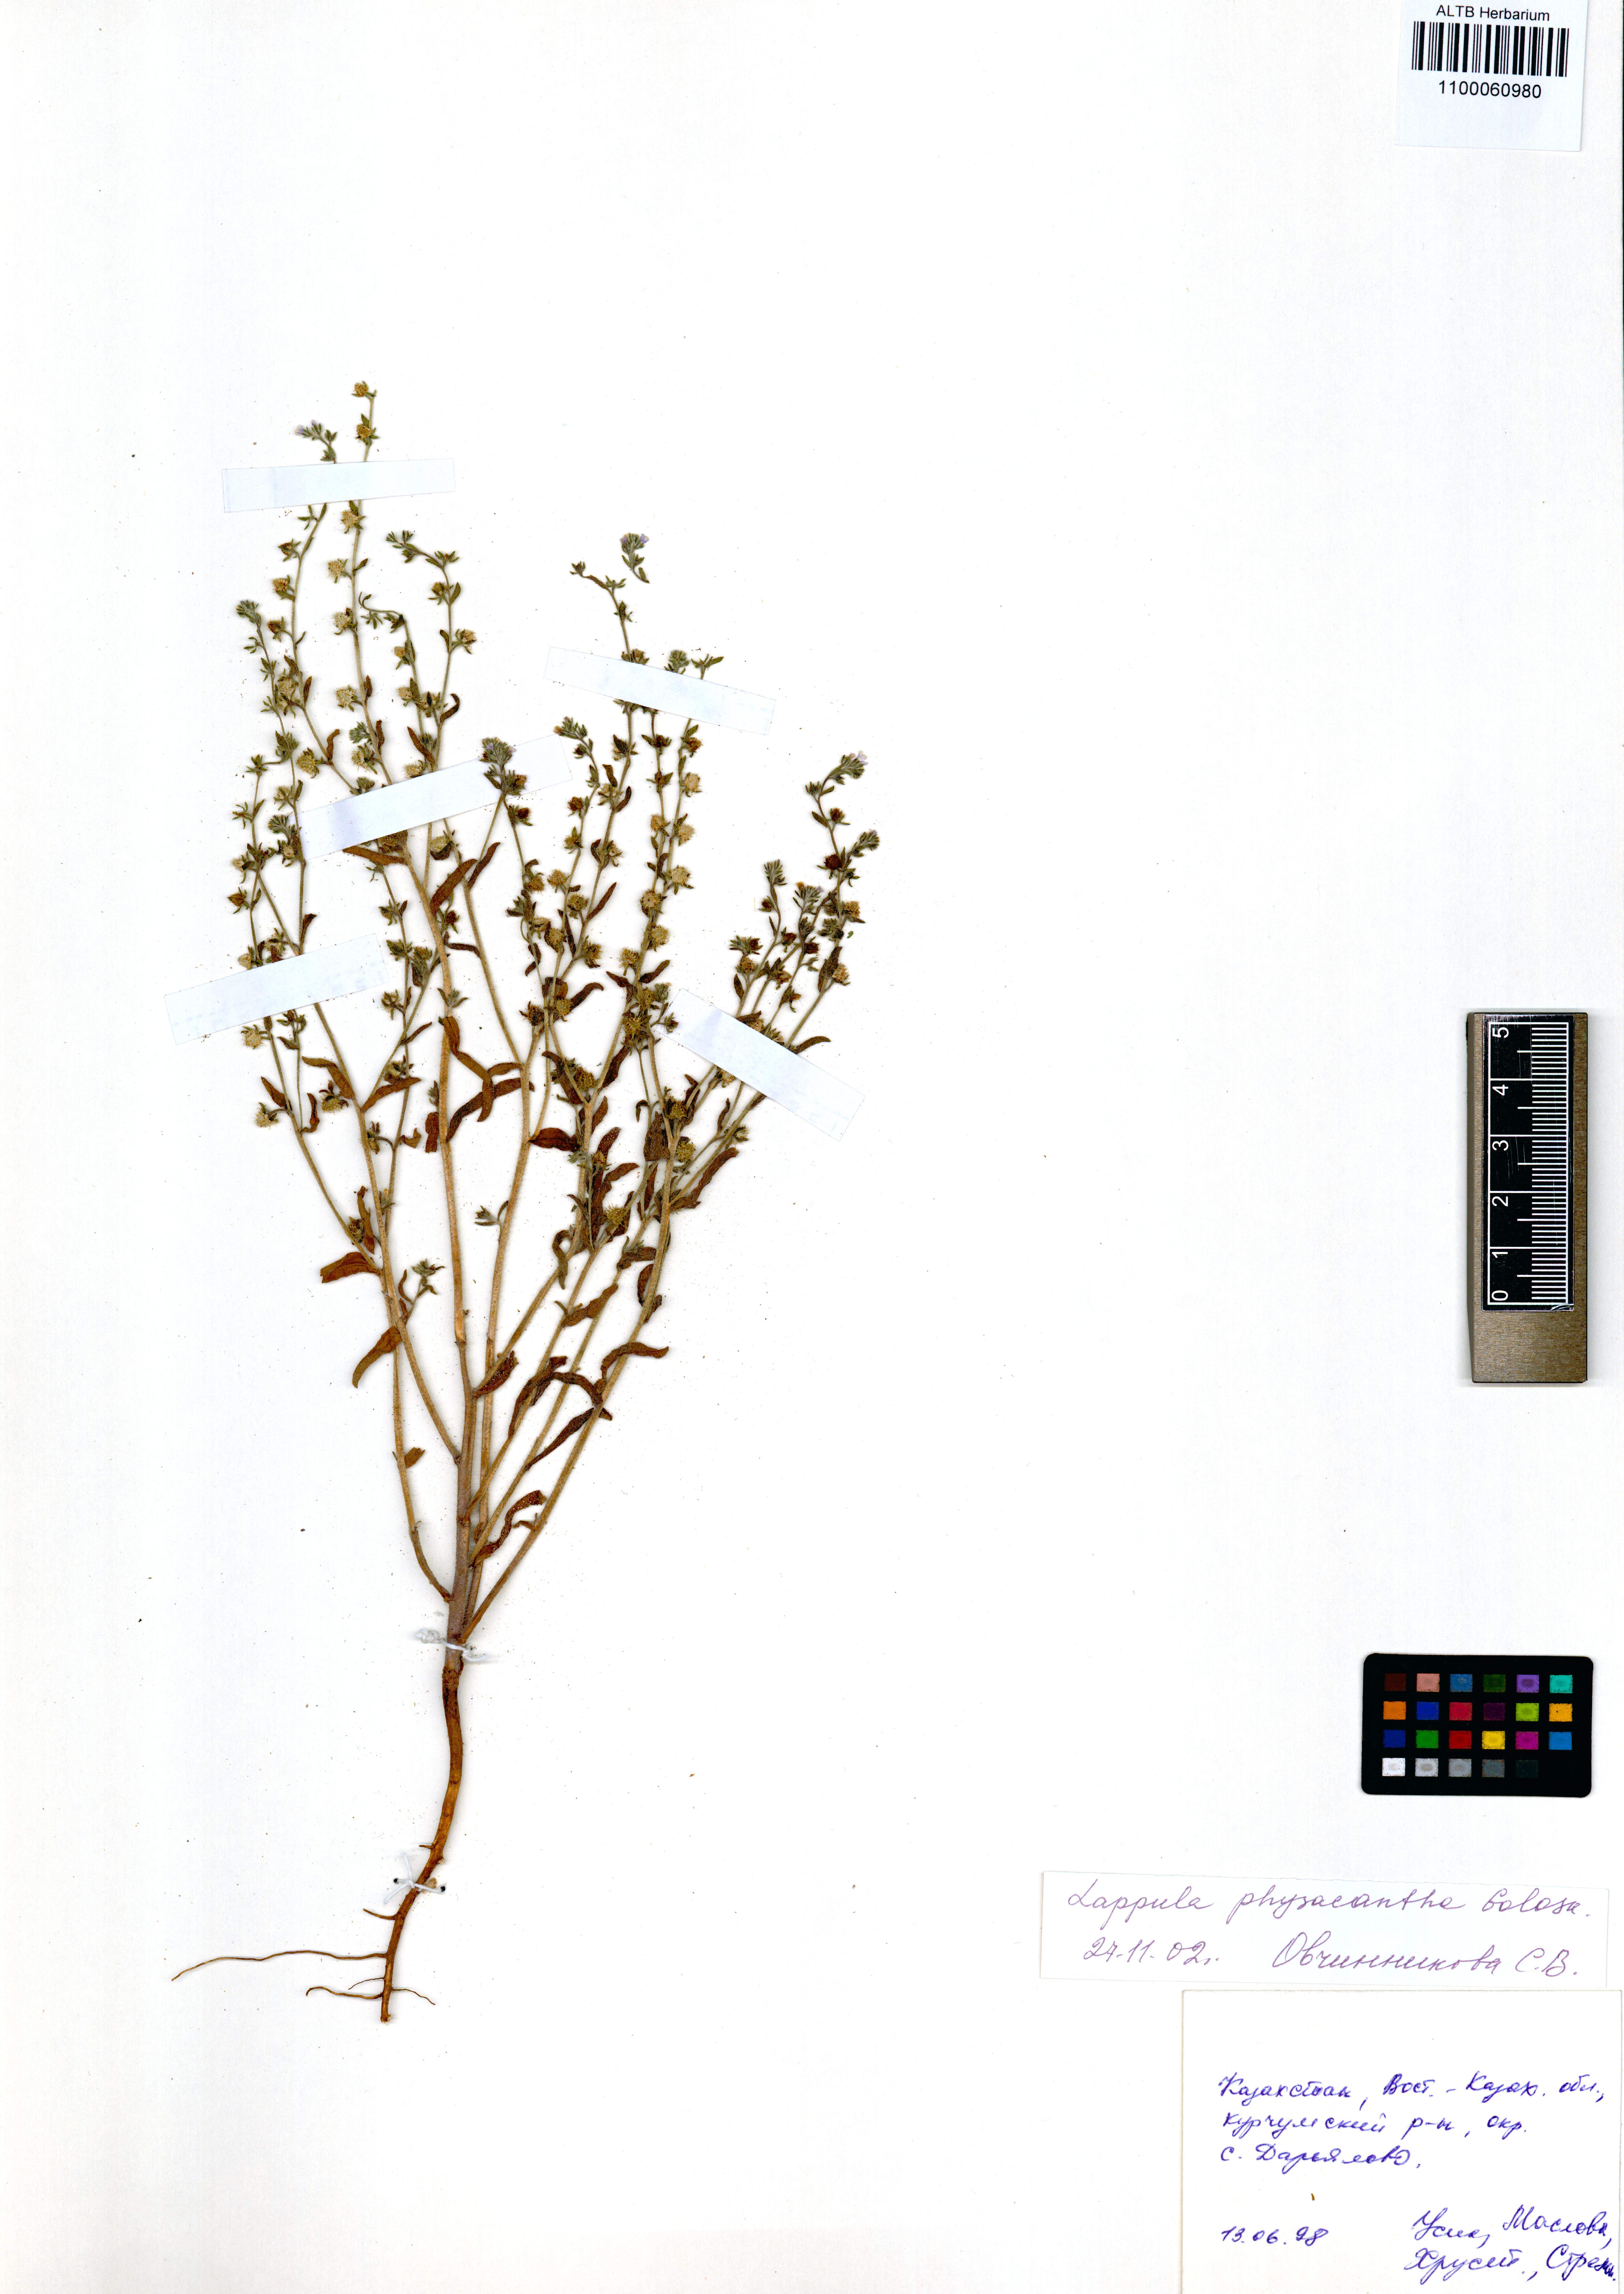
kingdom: Plantae
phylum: Tracheophyta
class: Magnoliopsida
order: Boraginales
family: Boraginaceae
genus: Lappula
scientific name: Lappula physacantha
